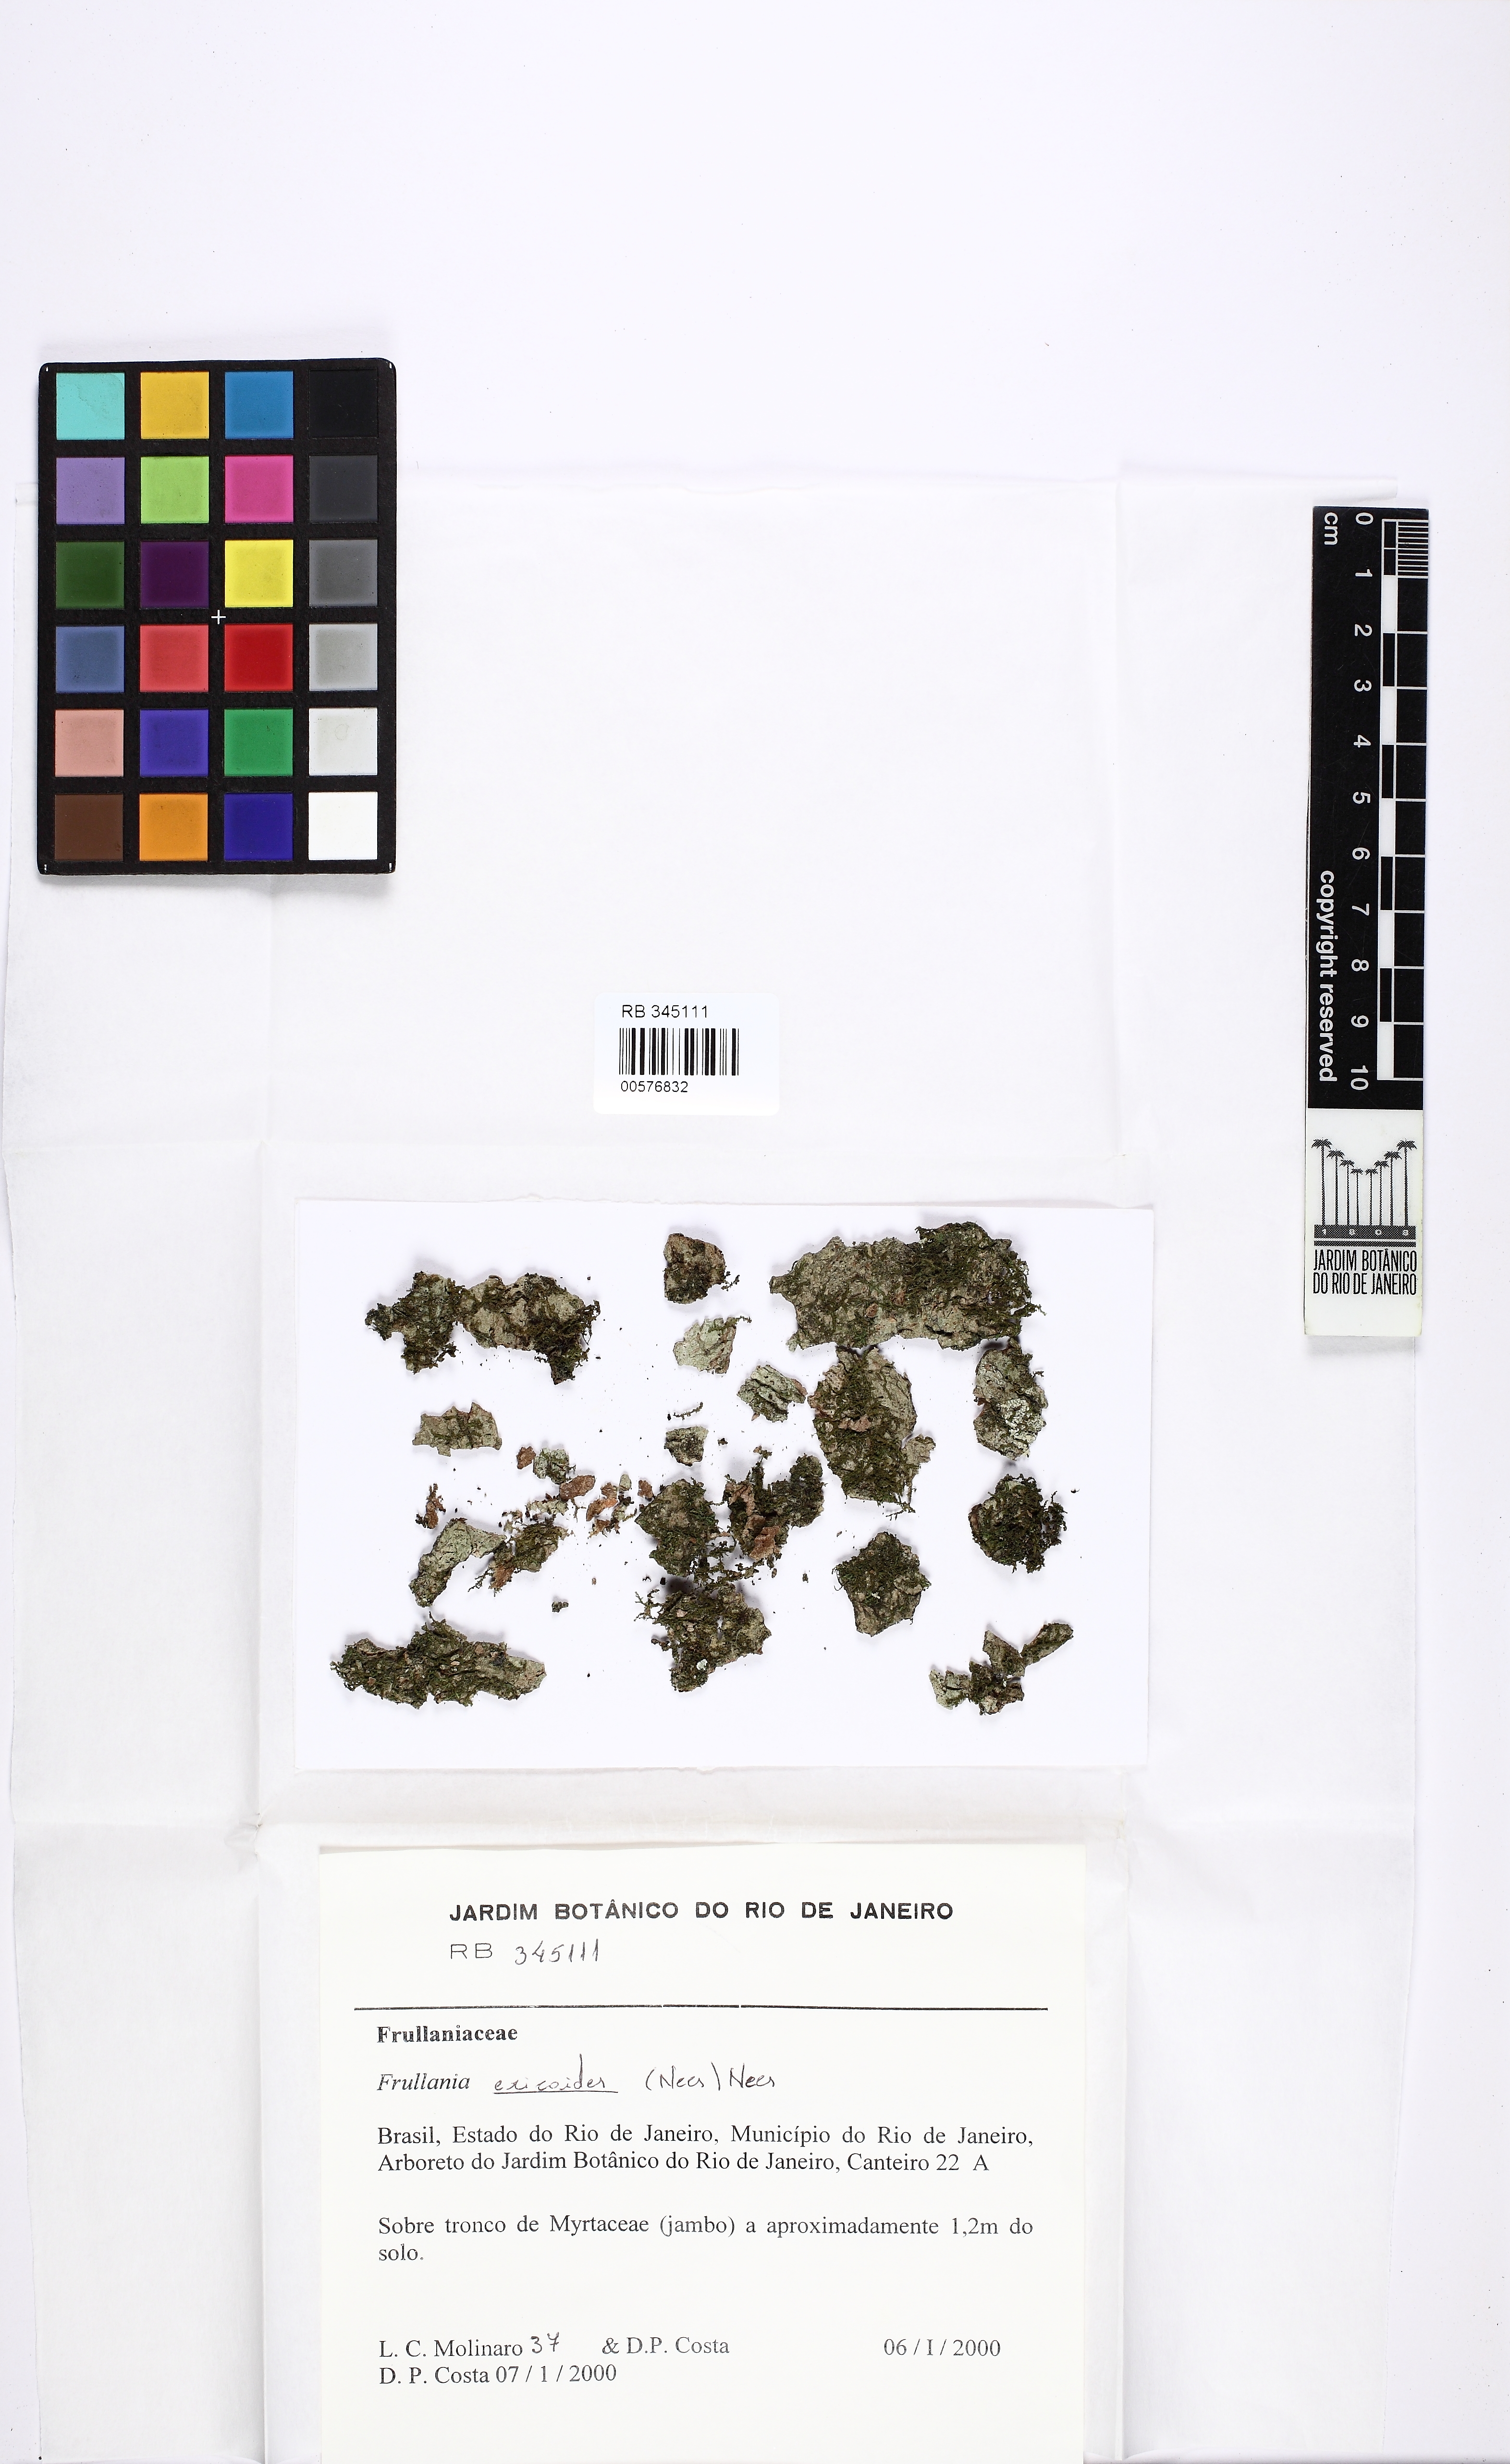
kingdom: Plantae
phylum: Marchantiophyta
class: Jungermanniopsida
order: Porellales
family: Frullaniaceae
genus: Frullania
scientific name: Frullania ericoides
